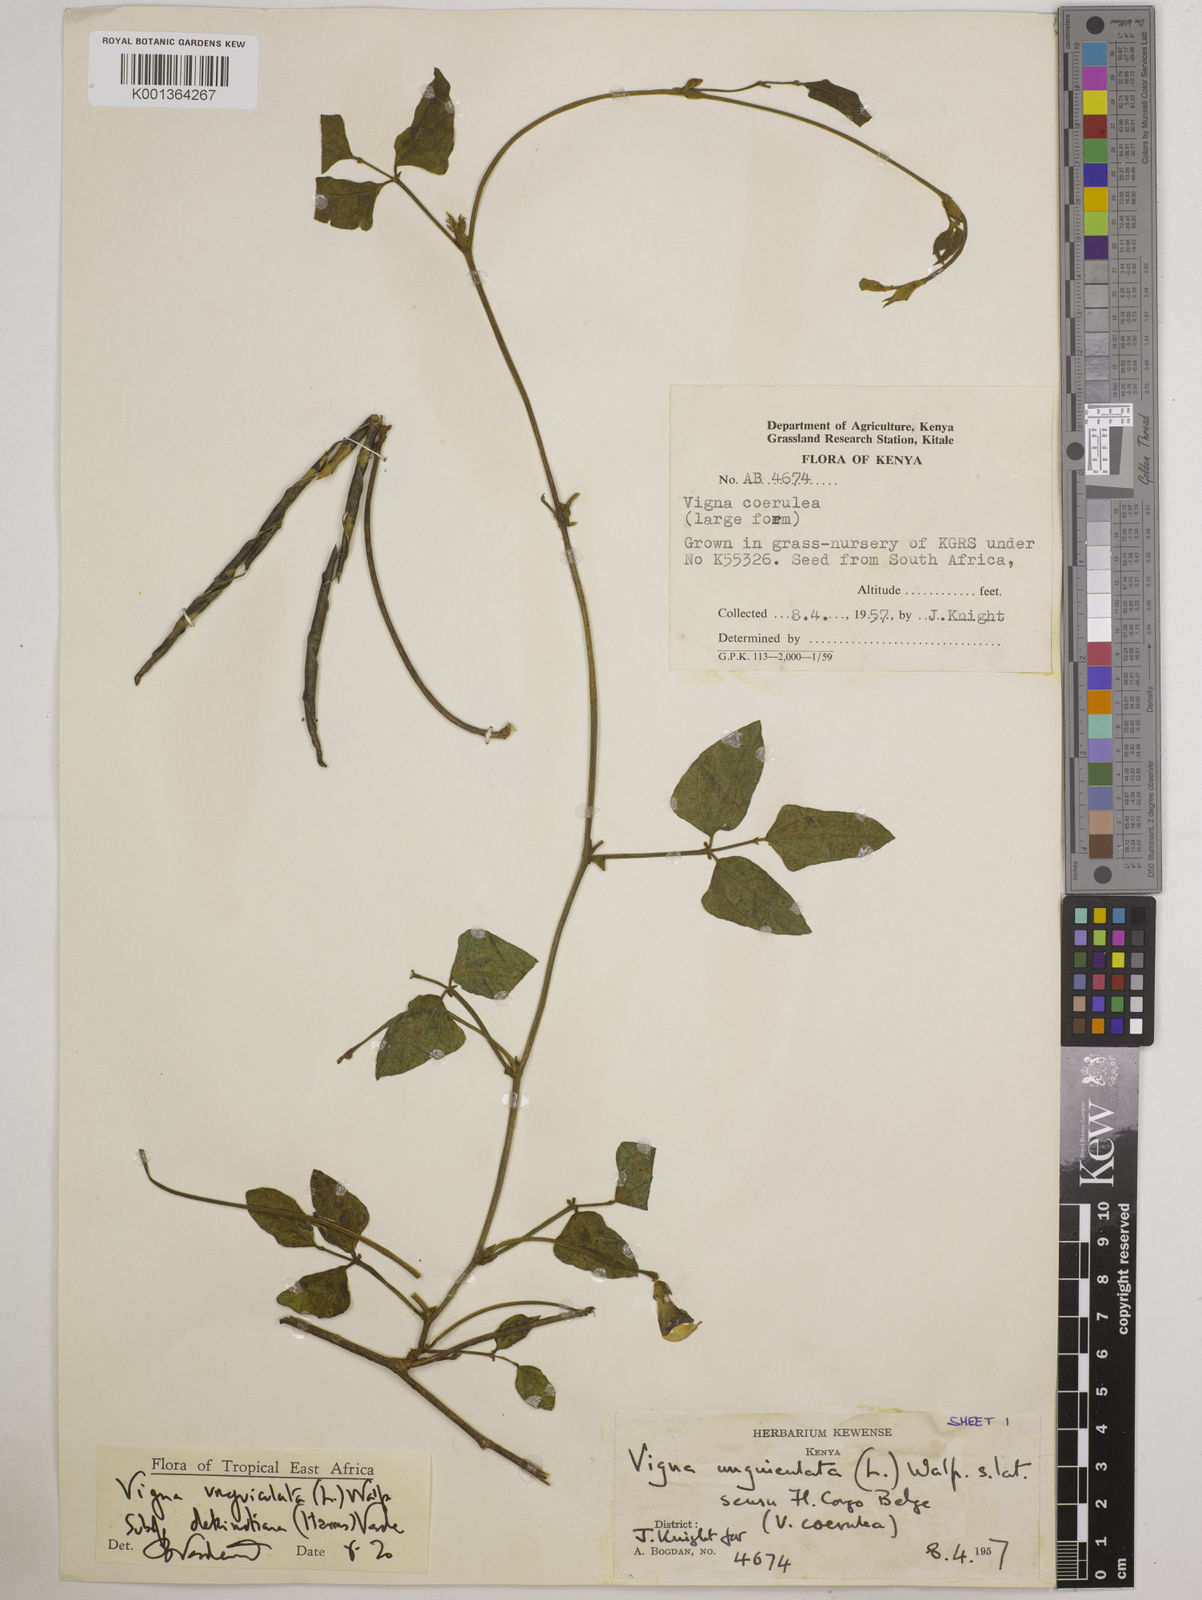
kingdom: Plantae
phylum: Tracheophyta
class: Magnoliopsida
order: Fabales
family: Fabaceae
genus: Vigna
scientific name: Vigna
